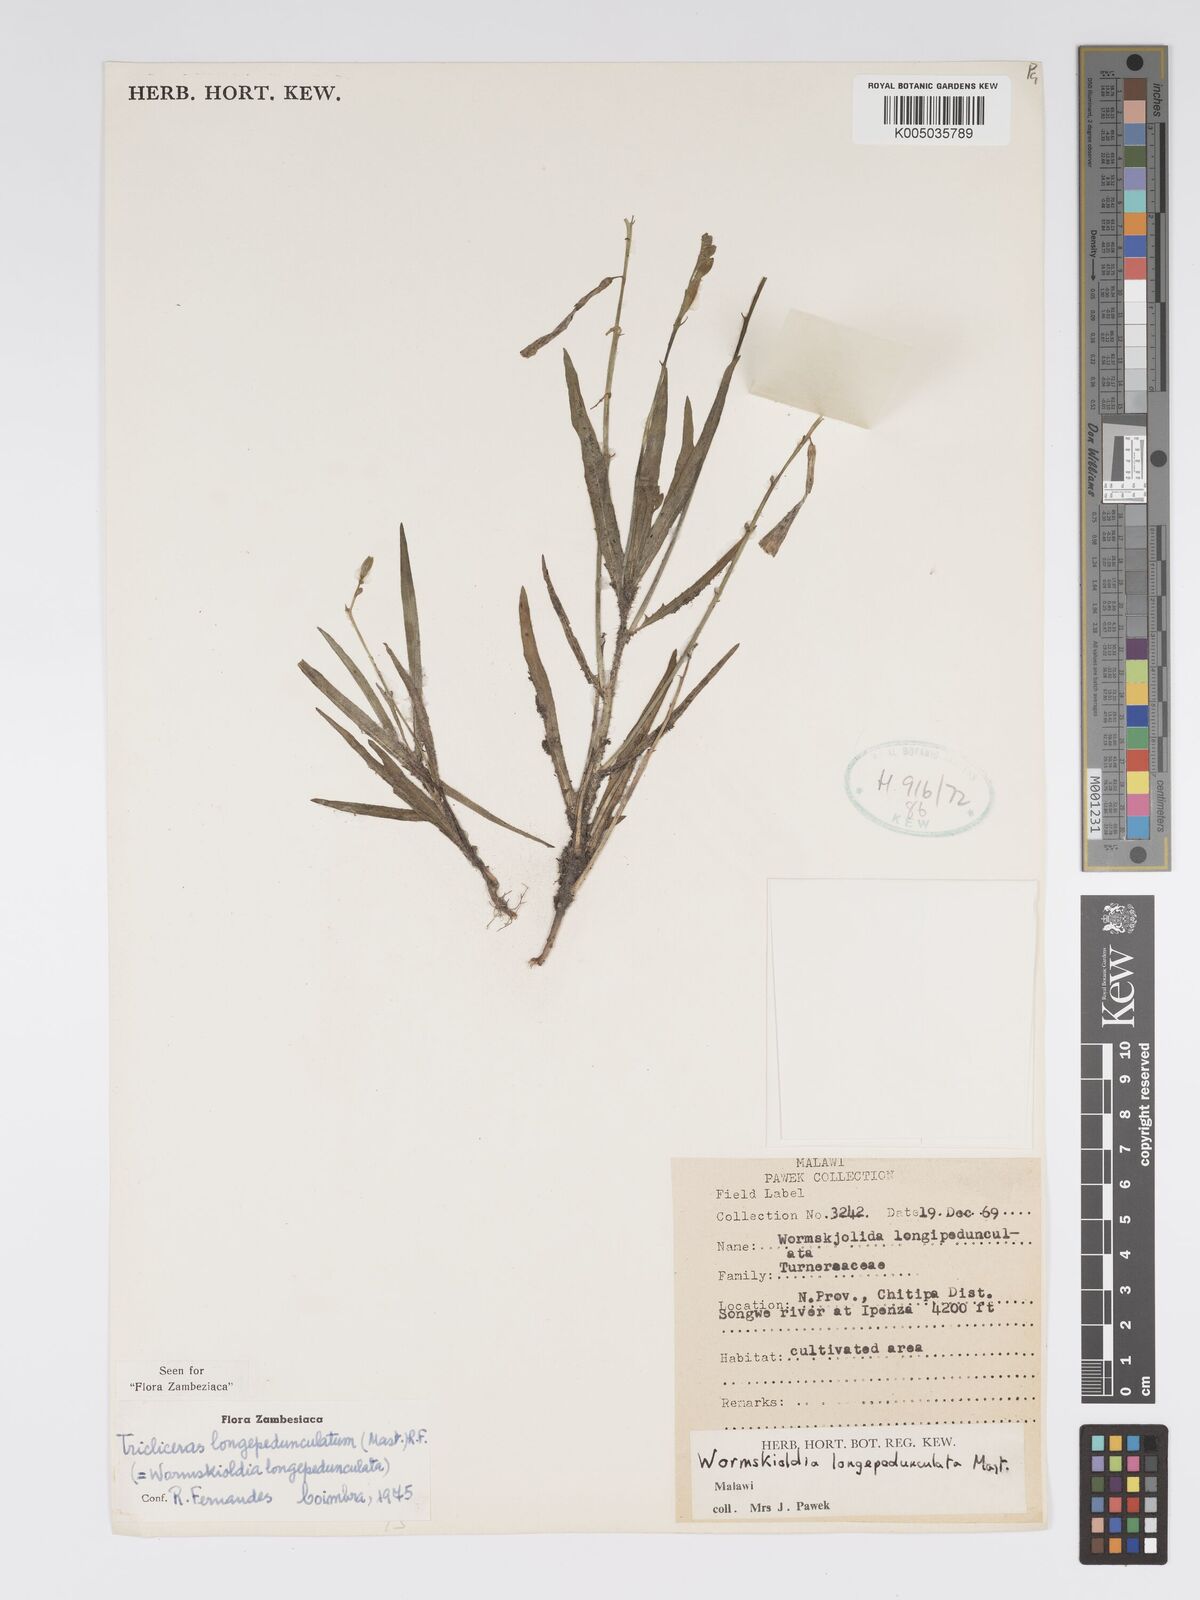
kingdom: Plantae
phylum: Tracheophyta
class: Magnoliopsida
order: Malpighiales
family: Turneraceae
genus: Tricliceras
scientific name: Tricliceras longepedunculatum
